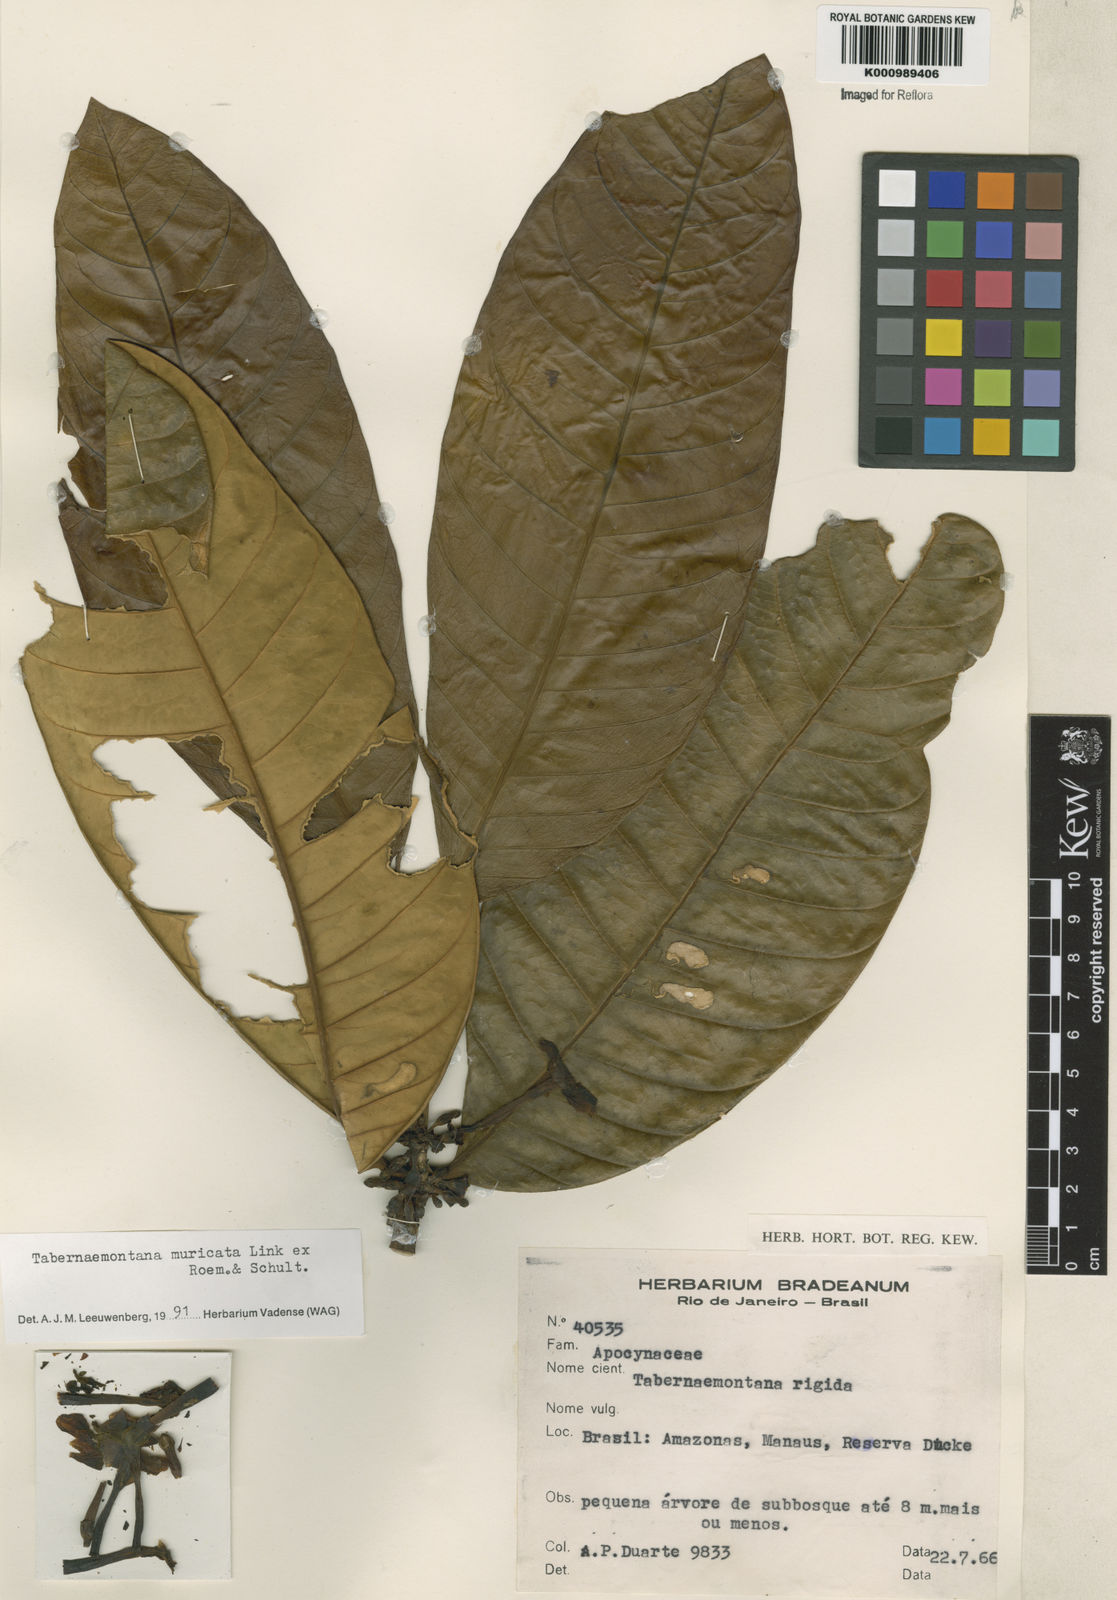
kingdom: Plantae
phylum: Tracheophyta
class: Magnoliopsida
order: Gentianales
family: Apocynaceae
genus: Tabernaemontana
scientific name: Tabernaemontana muricata
